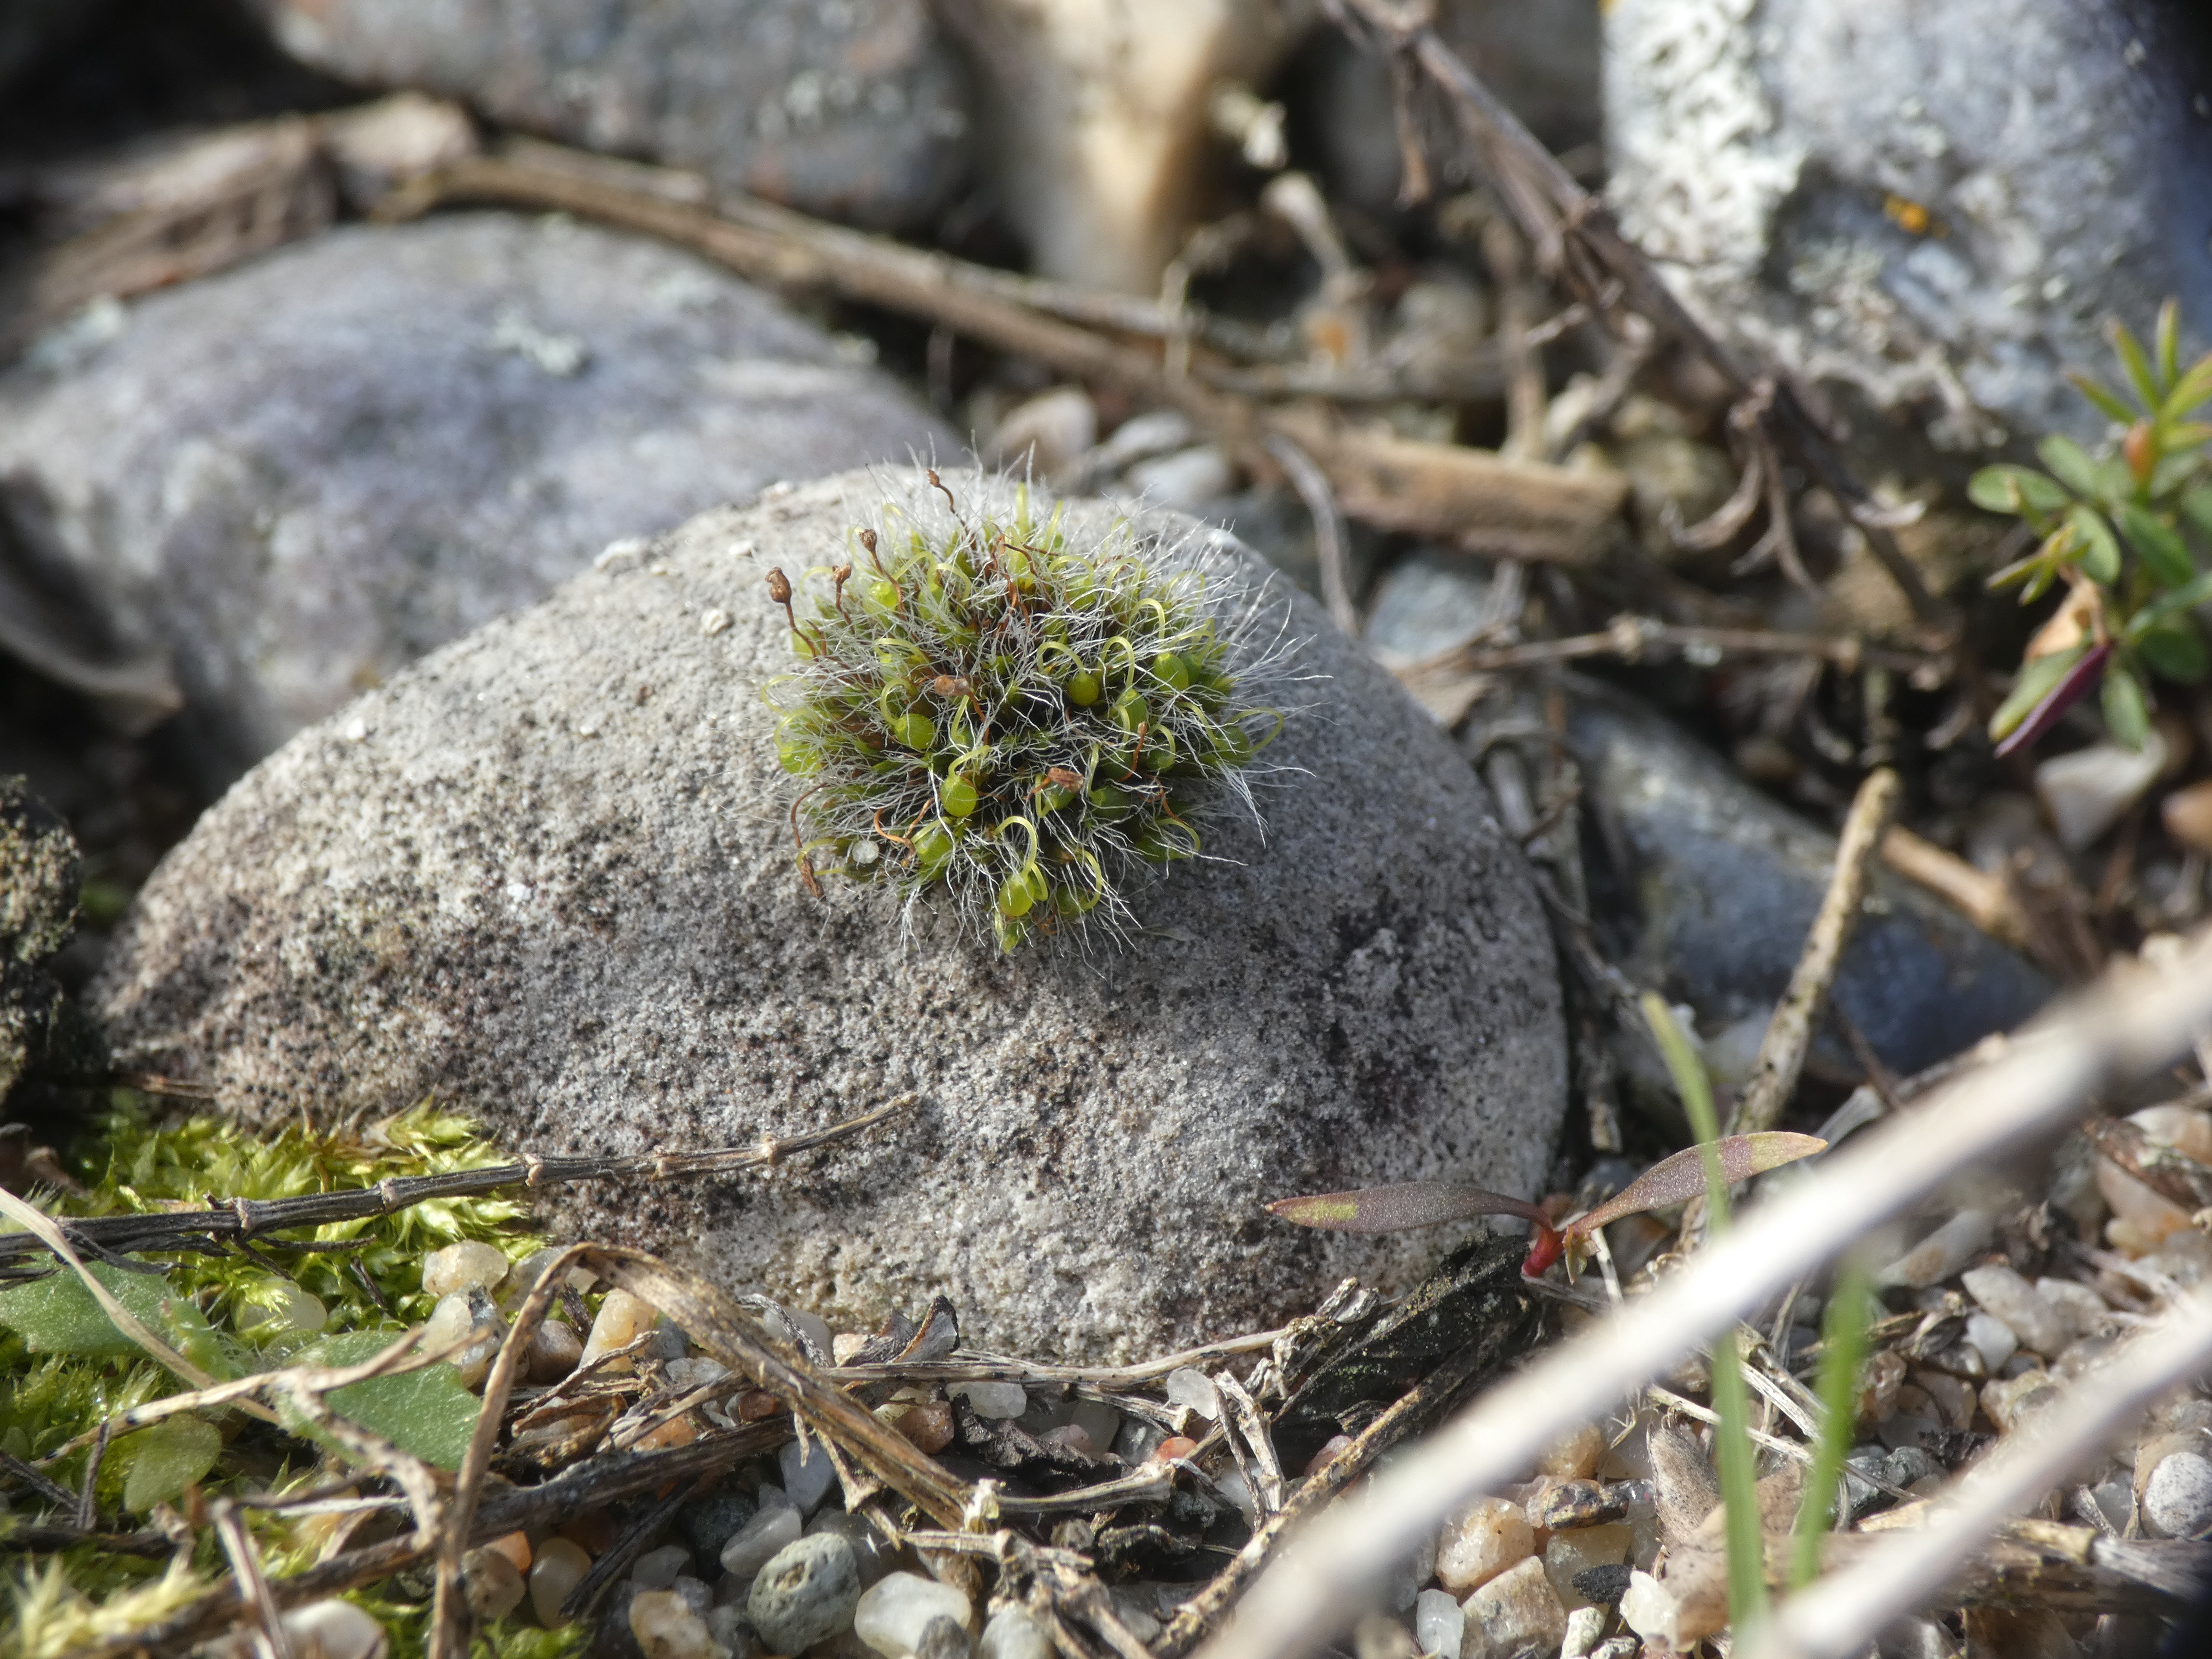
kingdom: Plantae
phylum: Bryophyta
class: Bryopsida
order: Grimmiales
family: Grimmiaceae
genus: Grimmia
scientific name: Grimmia pulvinata
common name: Pude-gråmos
